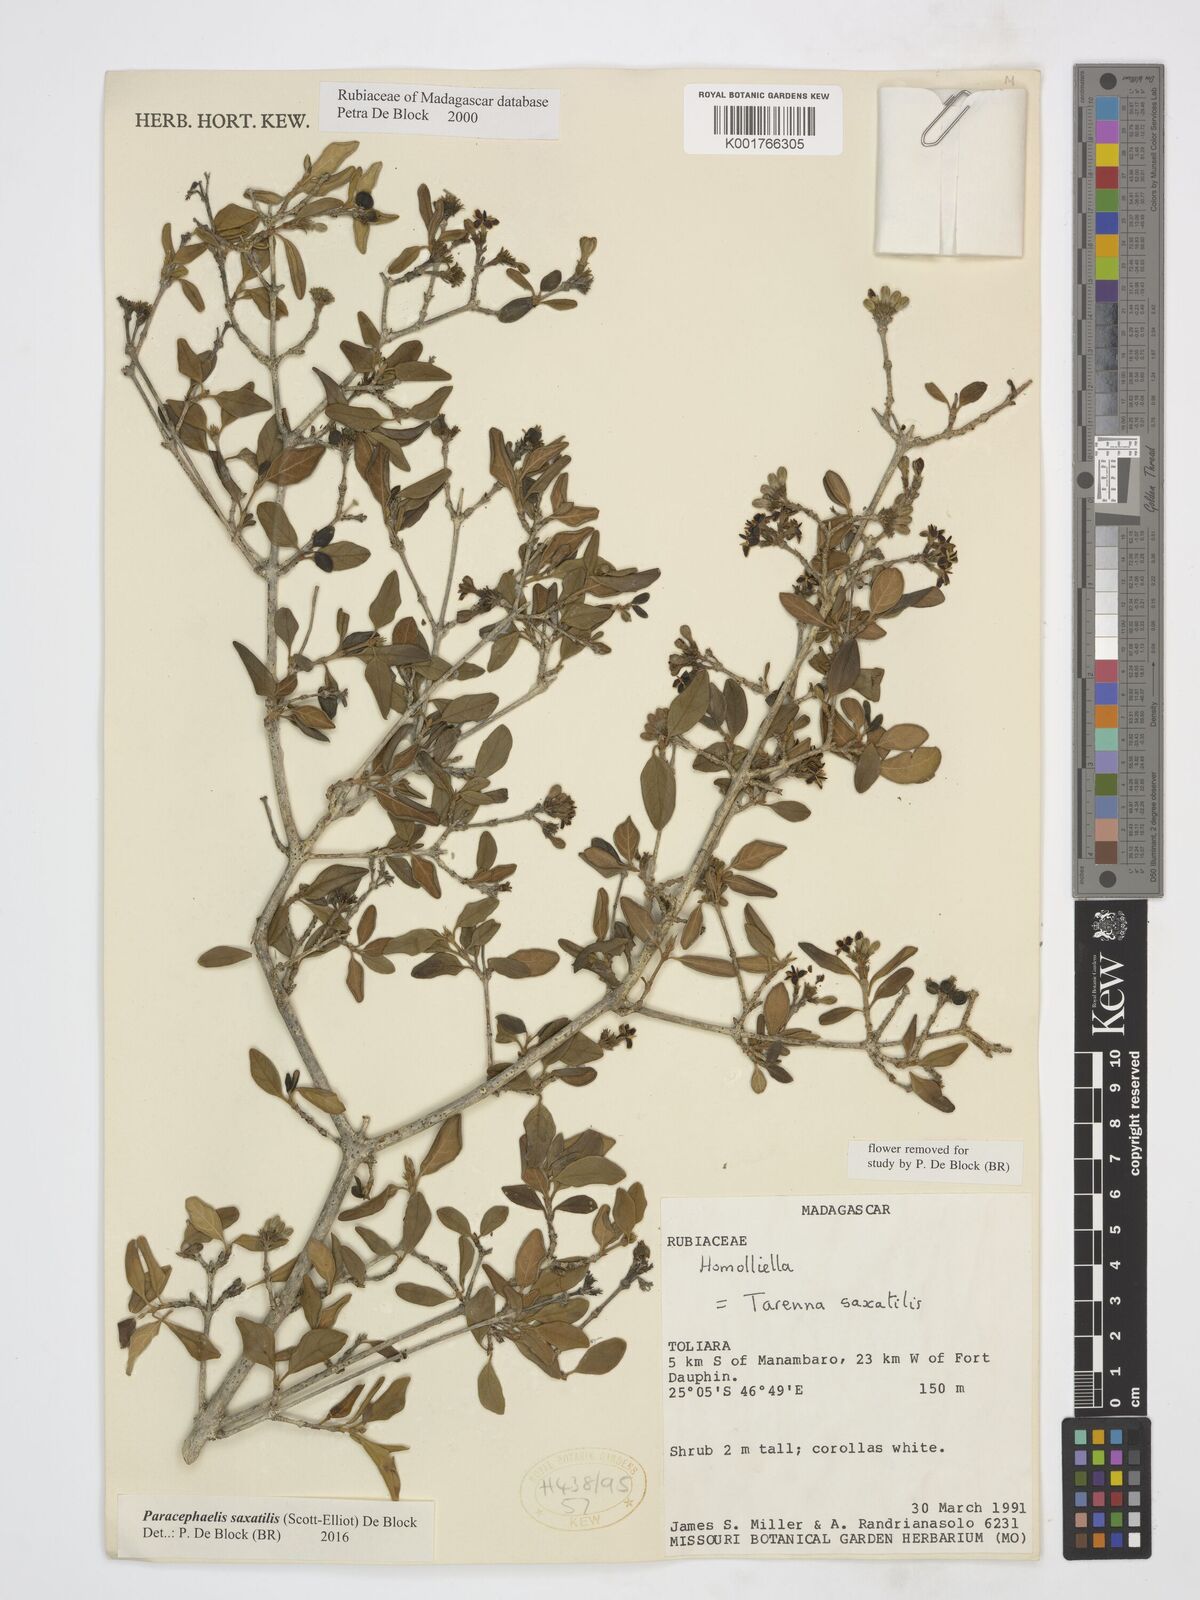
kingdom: Plantae
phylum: Tracheophyta
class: Magnoliopsida
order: Gentianales
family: Rubiaceae
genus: Paracephaelis
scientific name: Paracephaelis saxatilis
